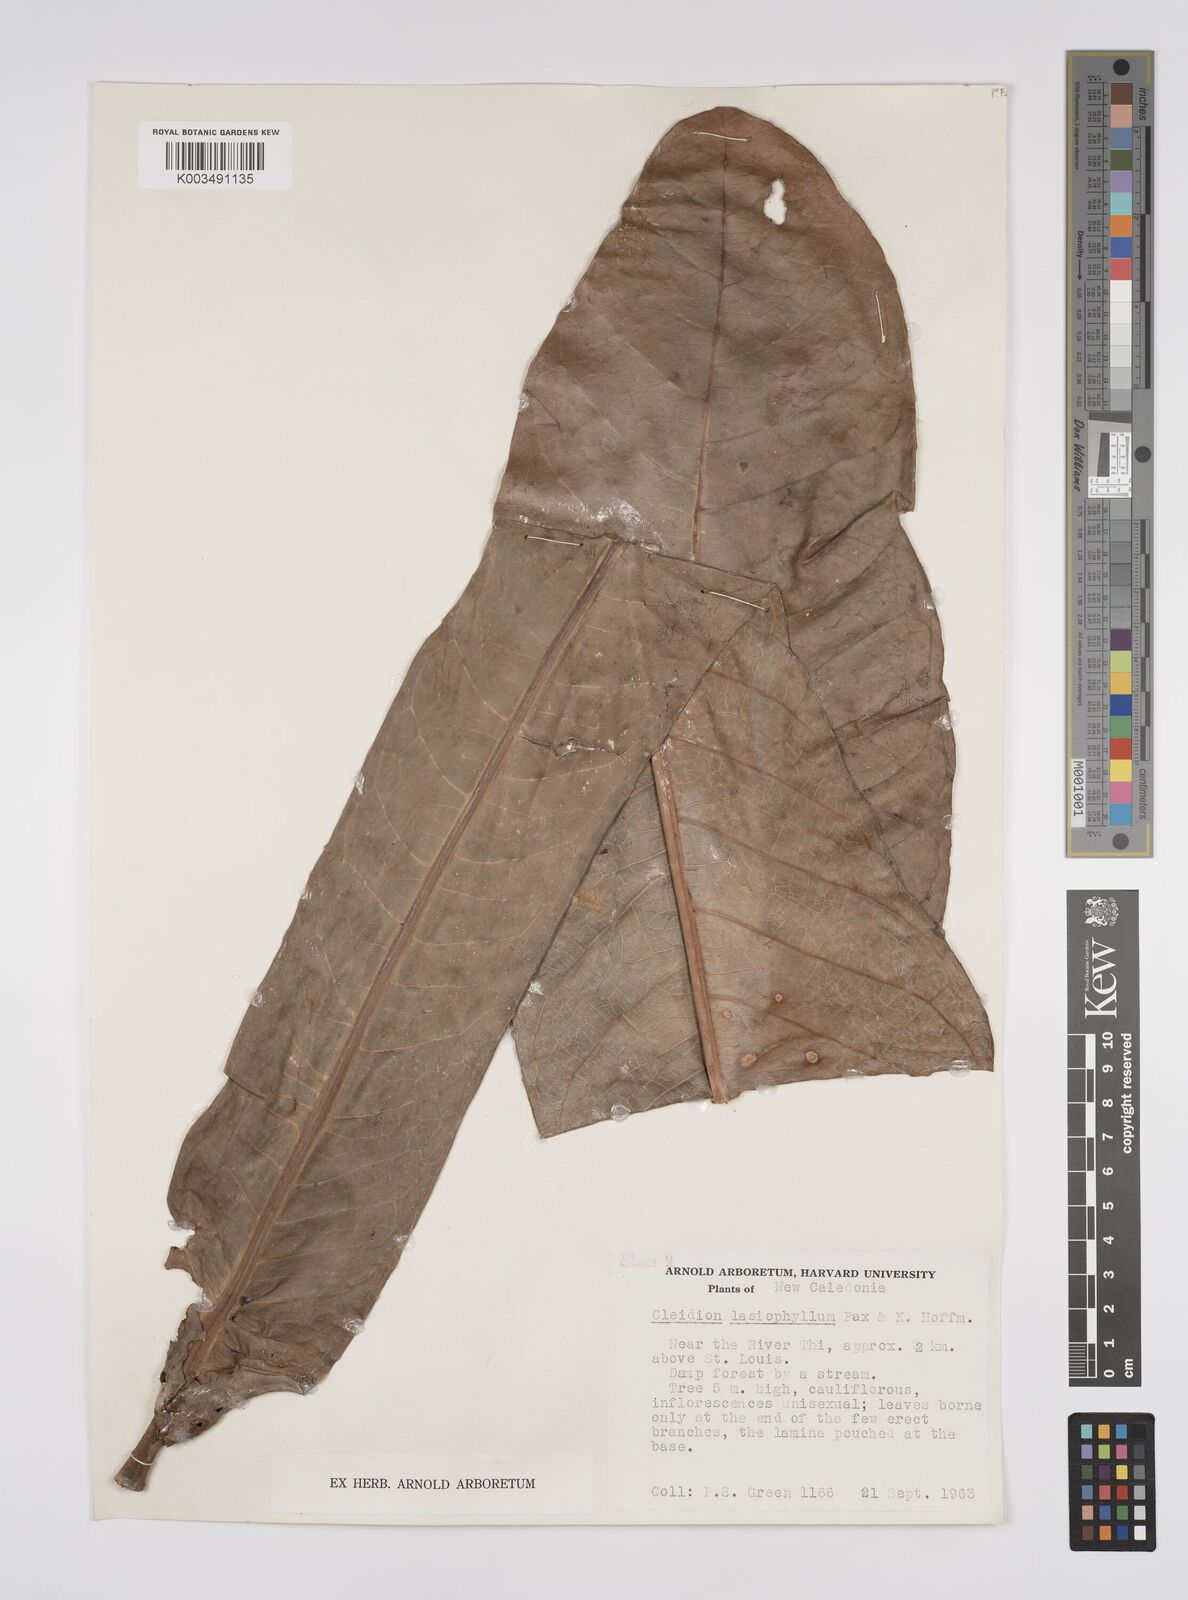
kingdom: Plantae
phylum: Tracheophyta
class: Magnoliopsida
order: Malpighiales
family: Euphorbiaceae
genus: Cleidion
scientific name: Cleidion lasiophyllum
